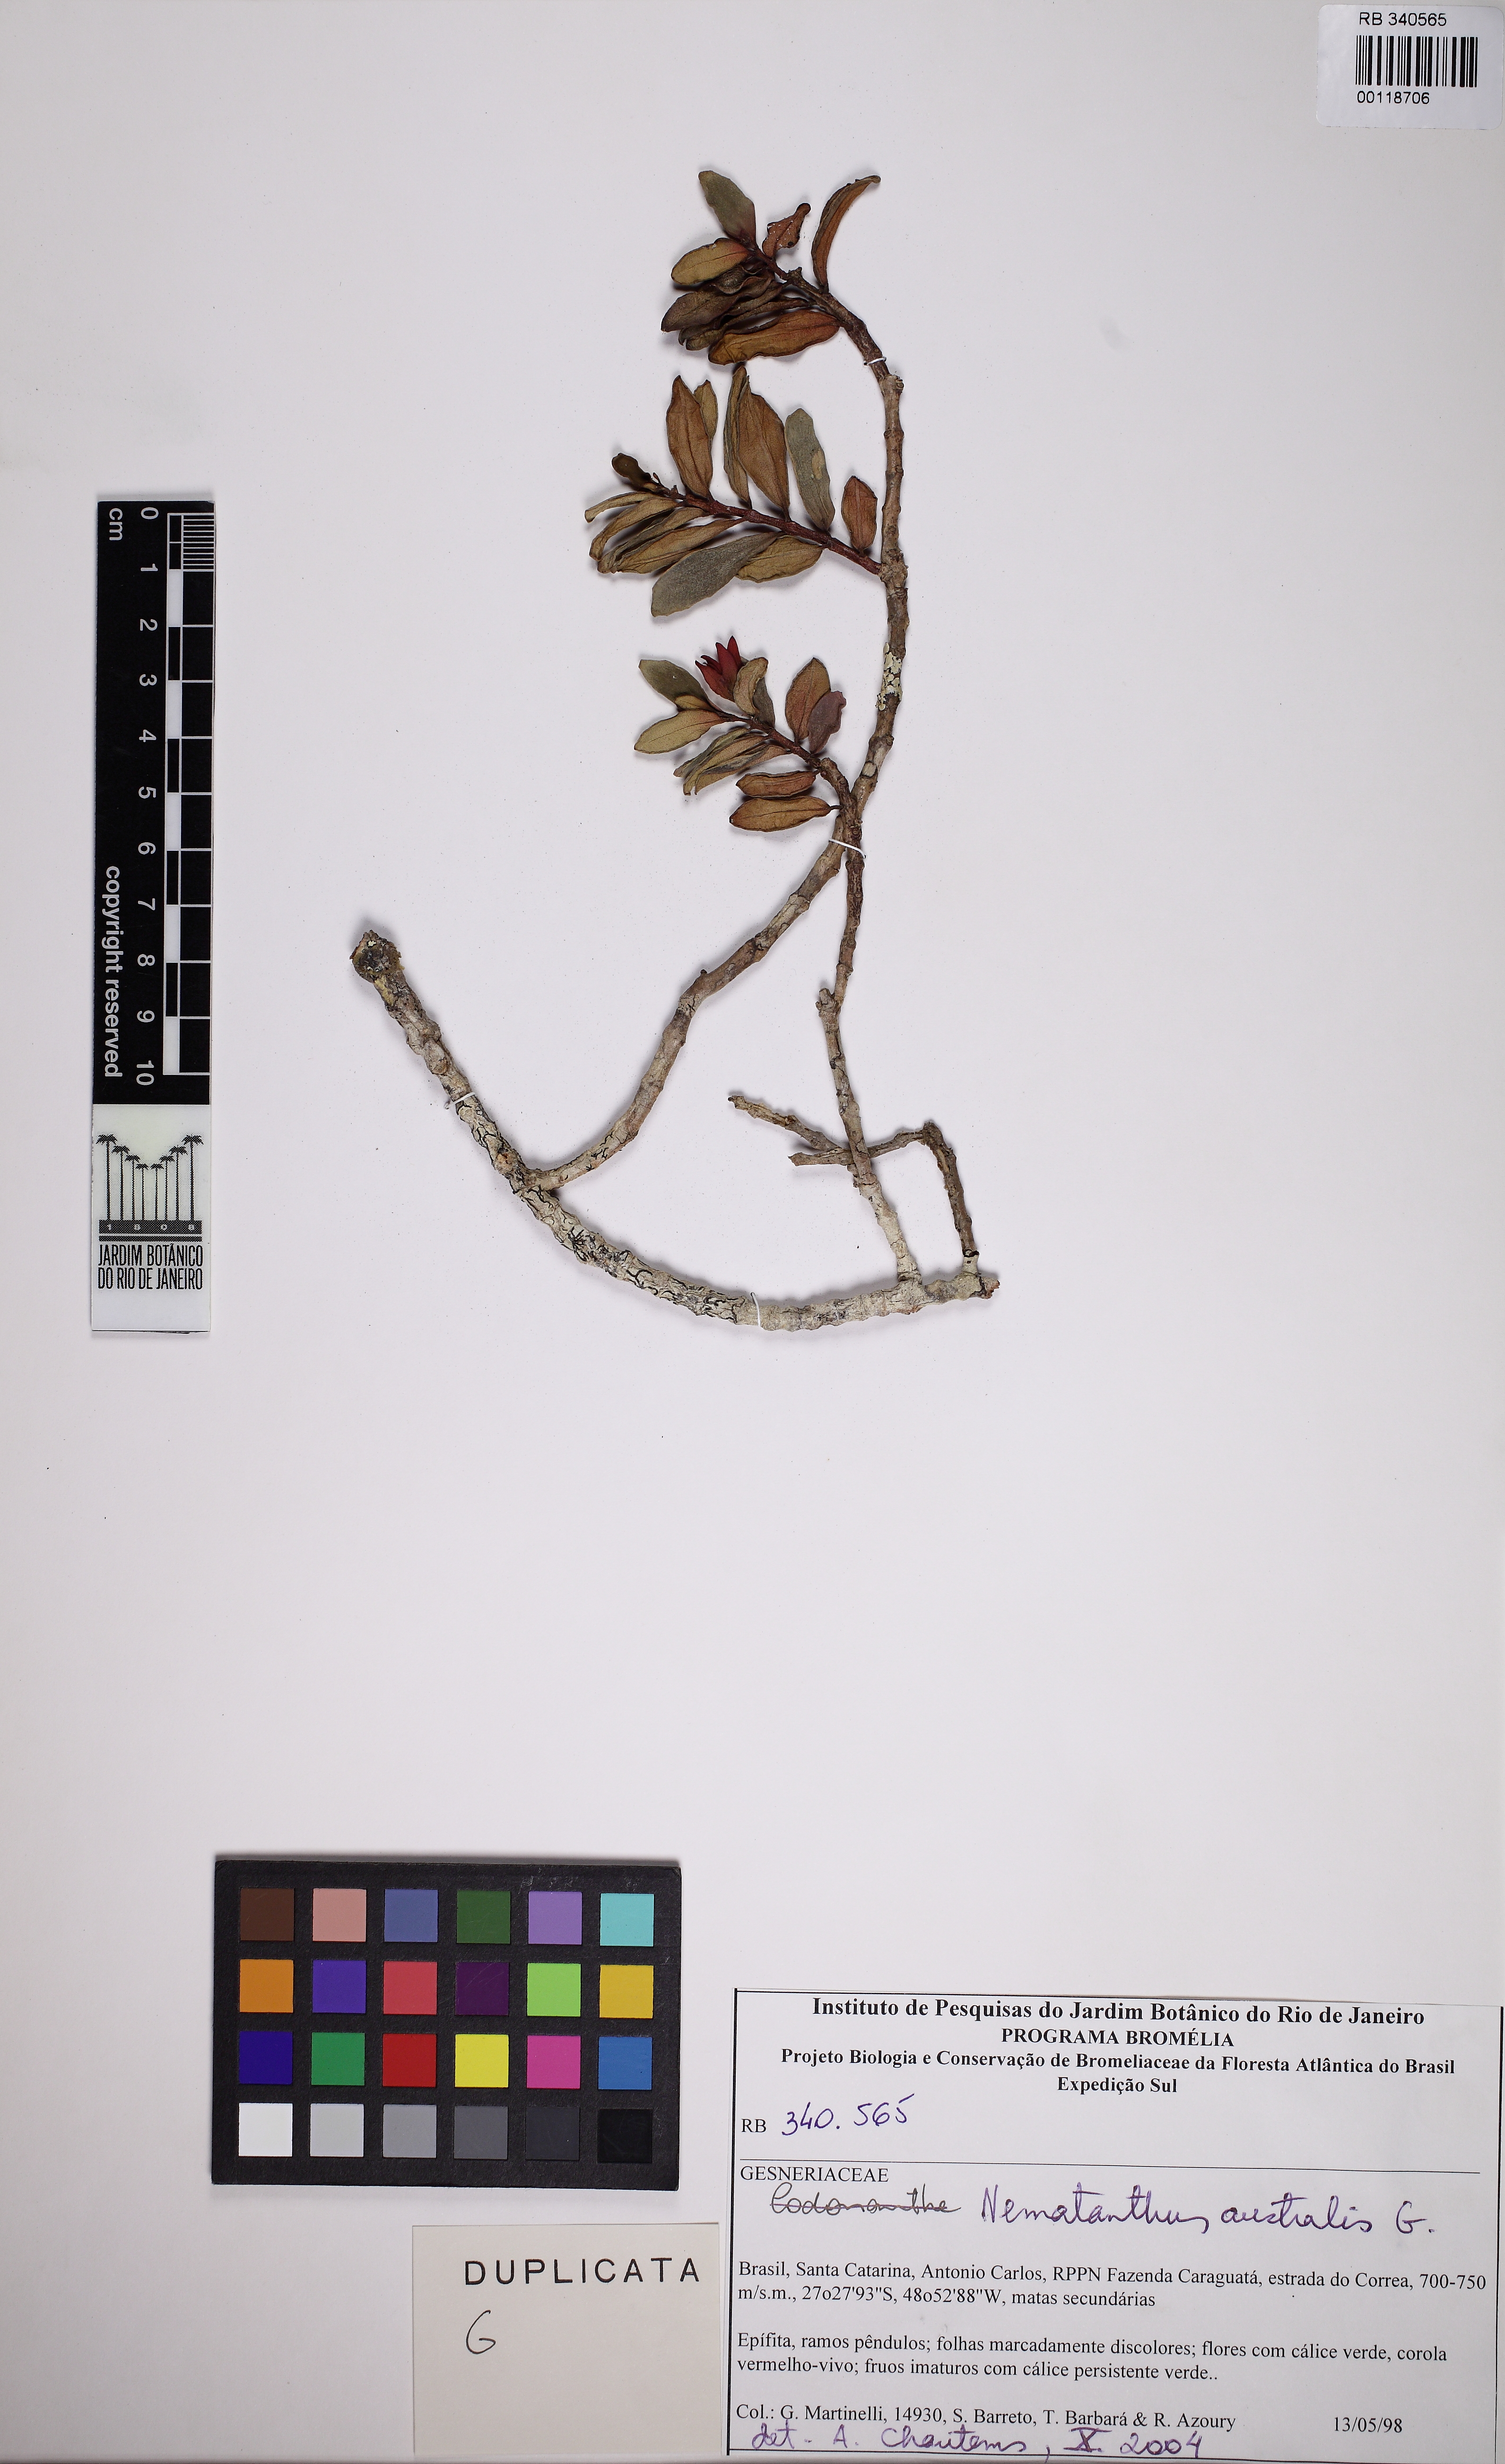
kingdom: Plantae
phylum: Tracheophyta
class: Magnoliopsida
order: Lamiales
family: Gesneriaceae
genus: Nematanthus
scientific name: Nematanthus australis
